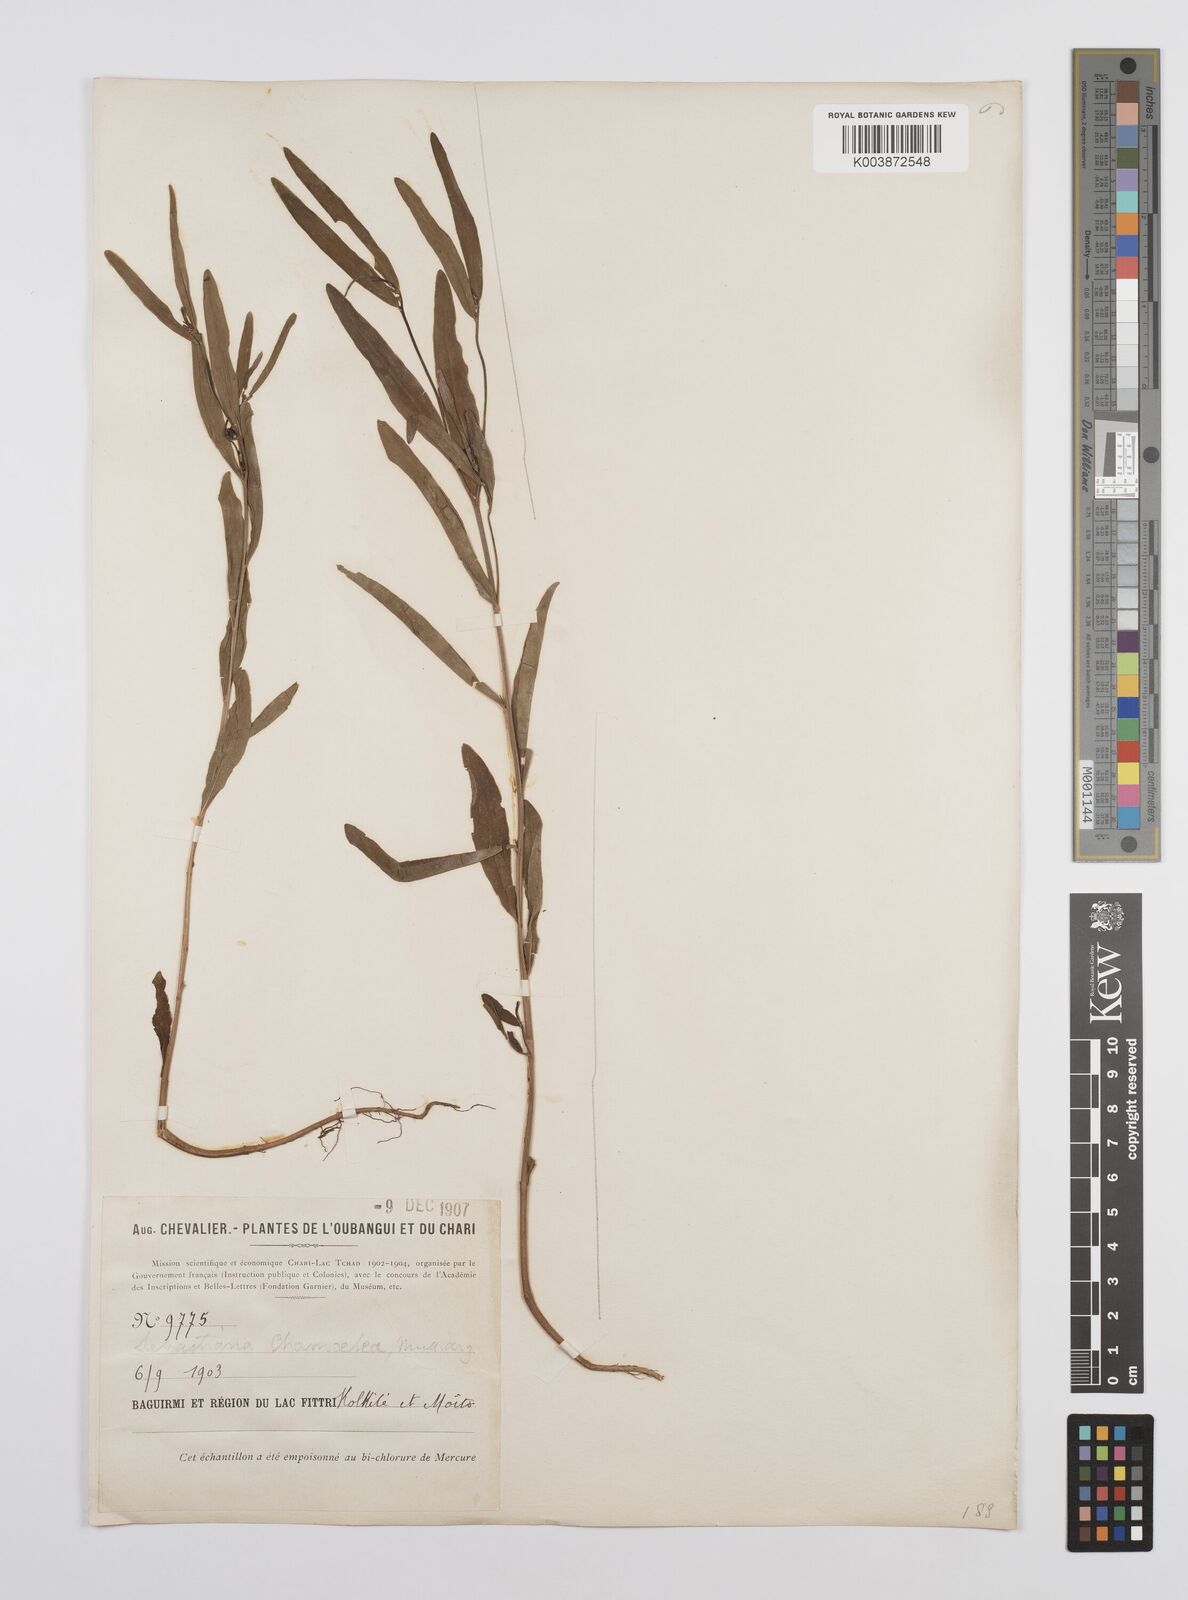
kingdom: Plantae
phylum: Tracheophyta
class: Magnoliopsida
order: Malpighiales
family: Euphorbiaceae
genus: Microstachys
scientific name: Microstachys chamaelea
